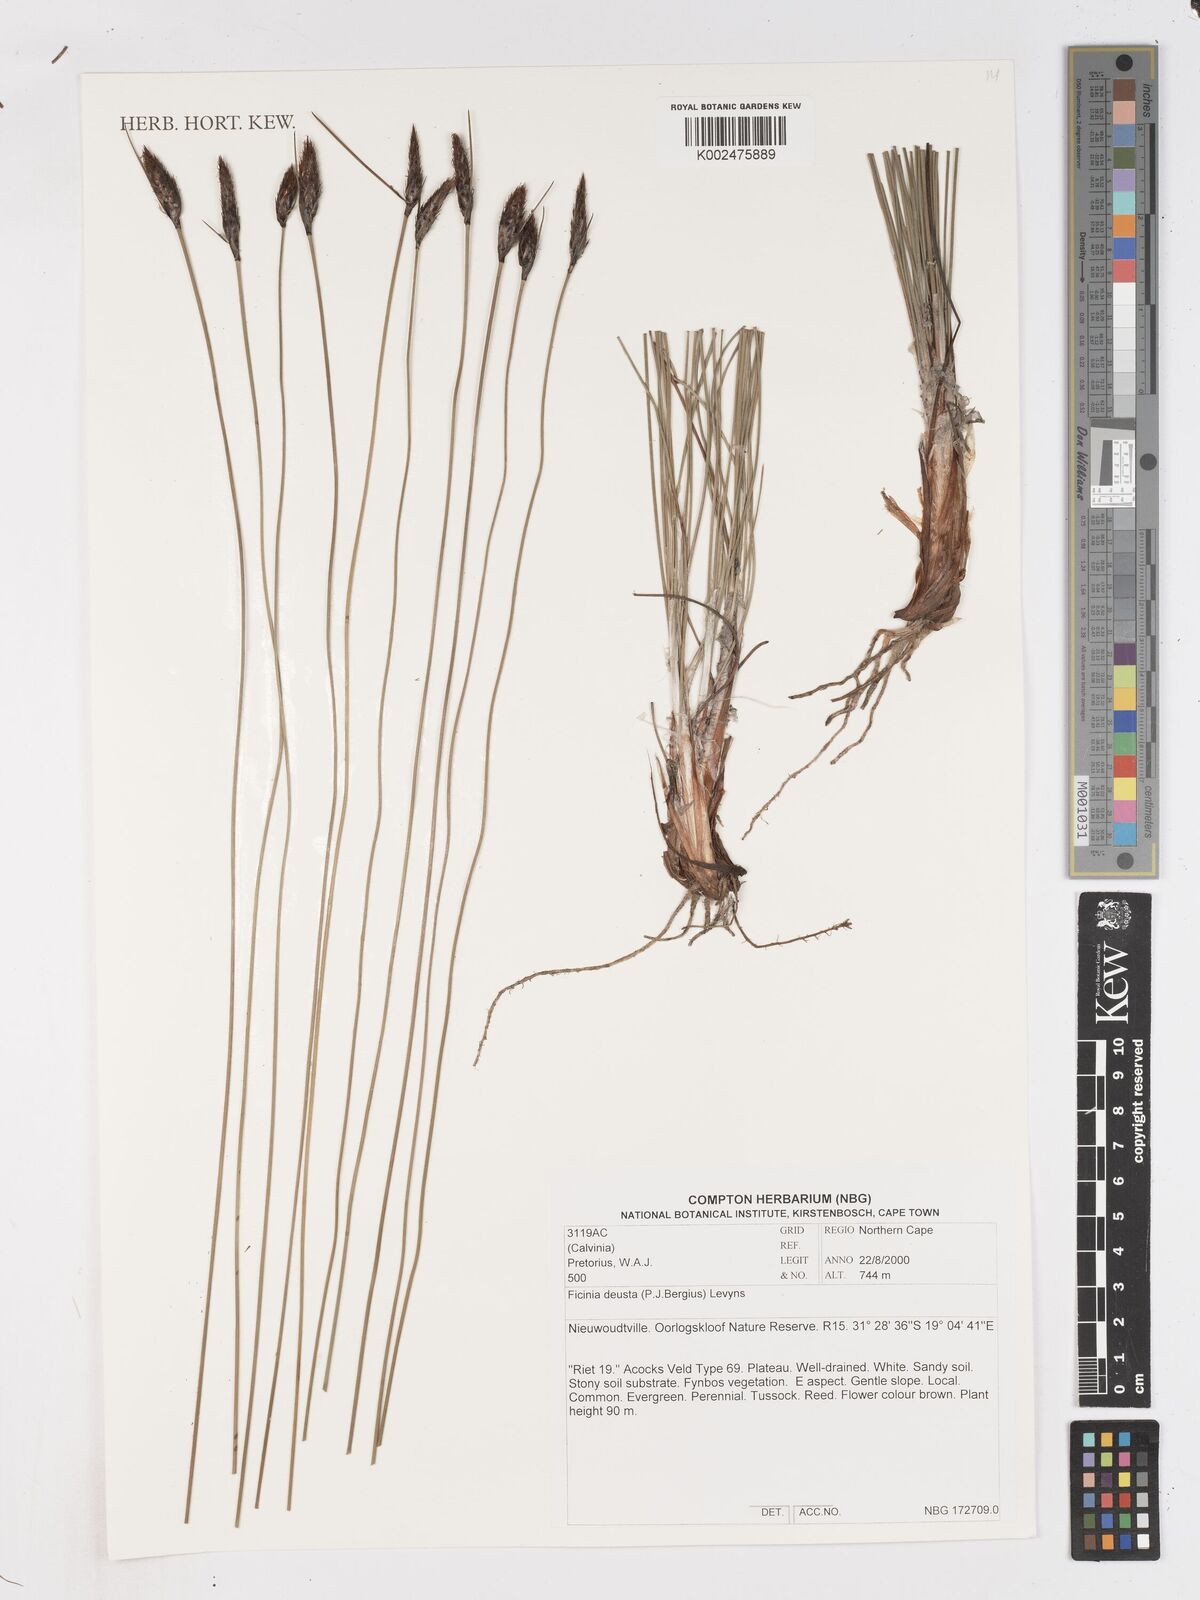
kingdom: Plantae
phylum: Tracheophyta
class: Liliopsida
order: Poales
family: Cyperaceae
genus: Ficinia
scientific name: Ficinia deusta
